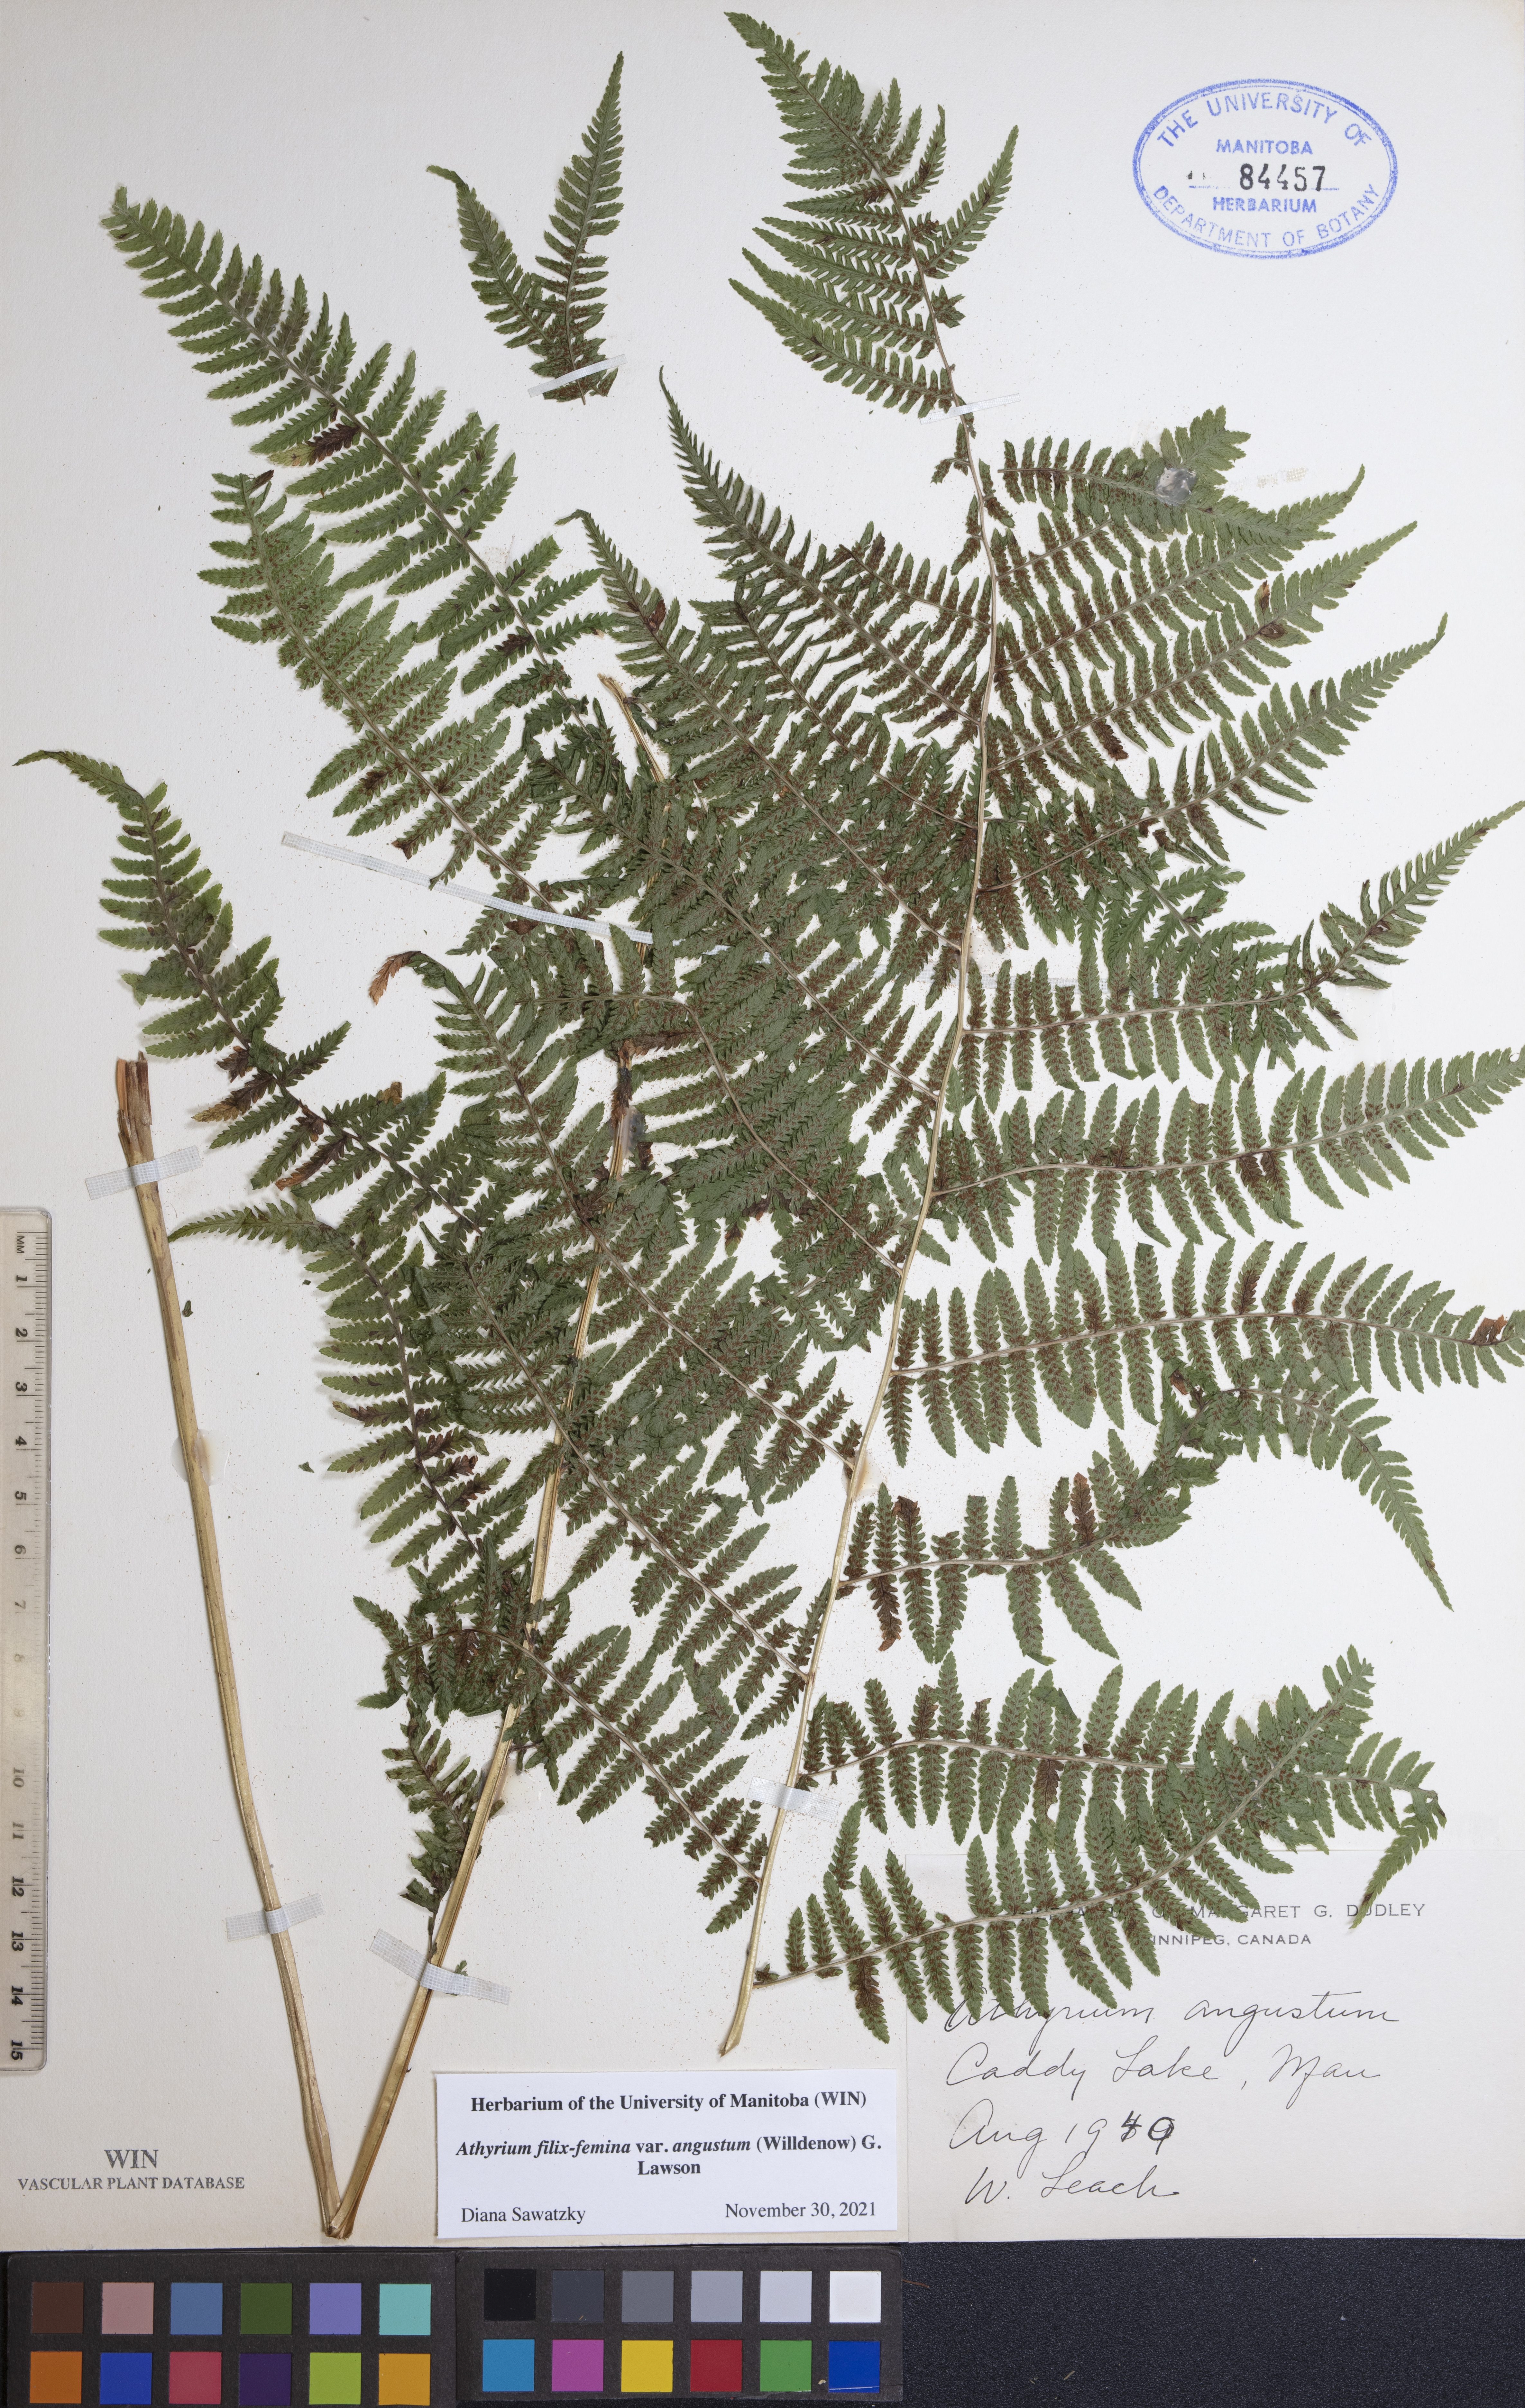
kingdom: Plantae
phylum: Tracheophyta
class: Polypodiopsida
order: Polypodiales
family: Athyriaceae
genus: Athyrium
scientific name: Athyrium angustum
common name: Northern lady fern
